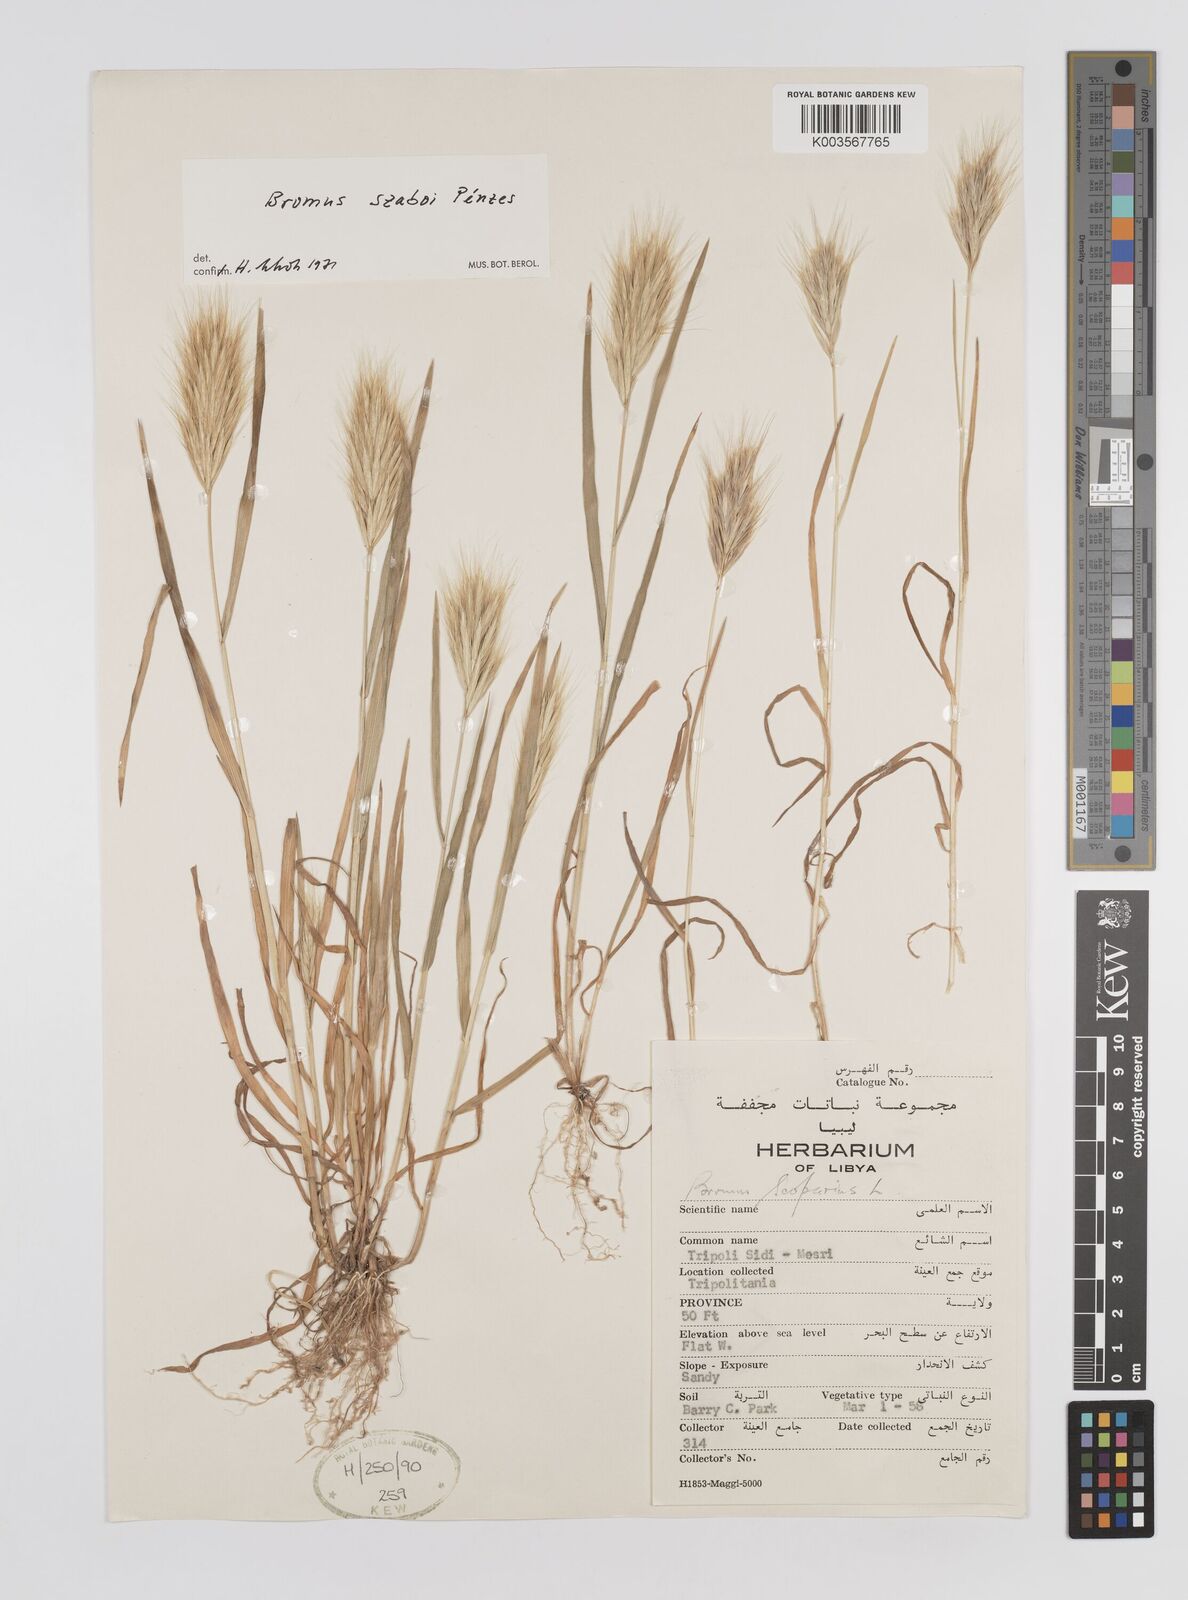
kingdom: Plantae
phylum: Tracheophyta
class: Liliopsida
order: Poales
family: Poaceae
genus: Bromus
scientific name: Bromus chrysopogon
